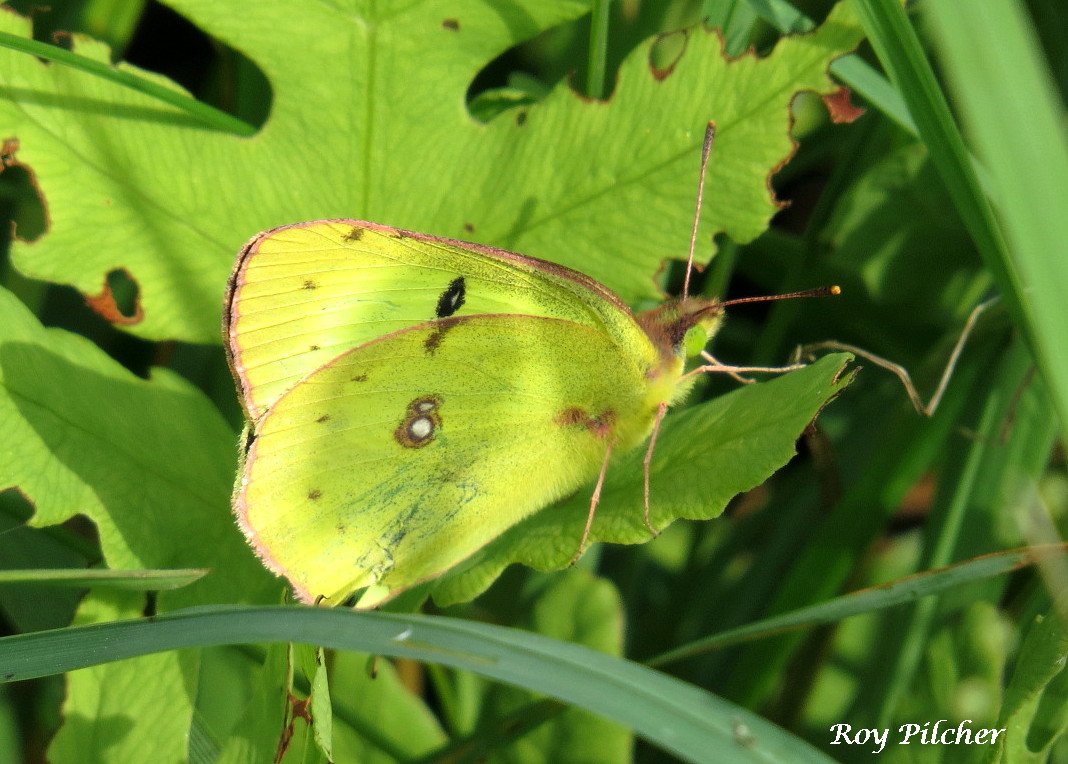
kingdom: Animalia
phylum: Arthropoda
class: Insecta
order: Lepidoptera
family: Pieridae
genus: Colias
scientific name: Colias philodice
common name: Clouded Sulphur
